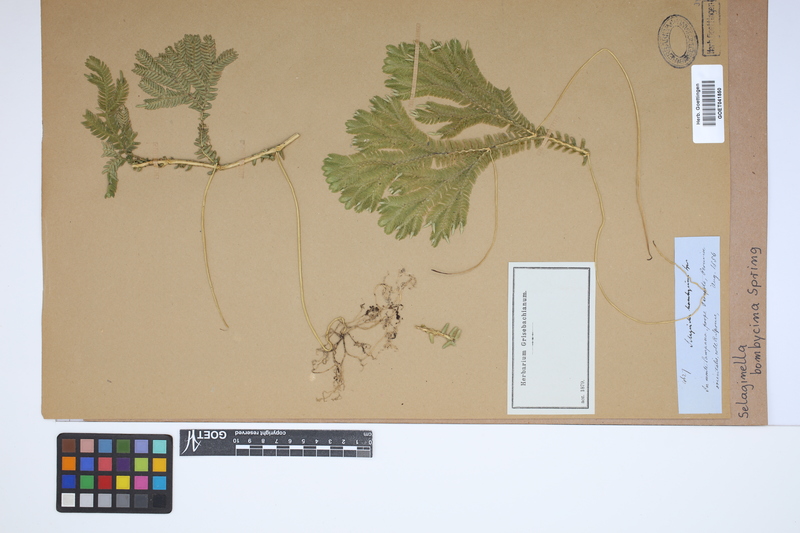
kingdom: Plantae
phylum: Tracheophyta
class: Lycopodiopsida
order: Selaginellales
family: Selaginellaceae
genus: Selaginella
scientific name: Selaginella bombycina
